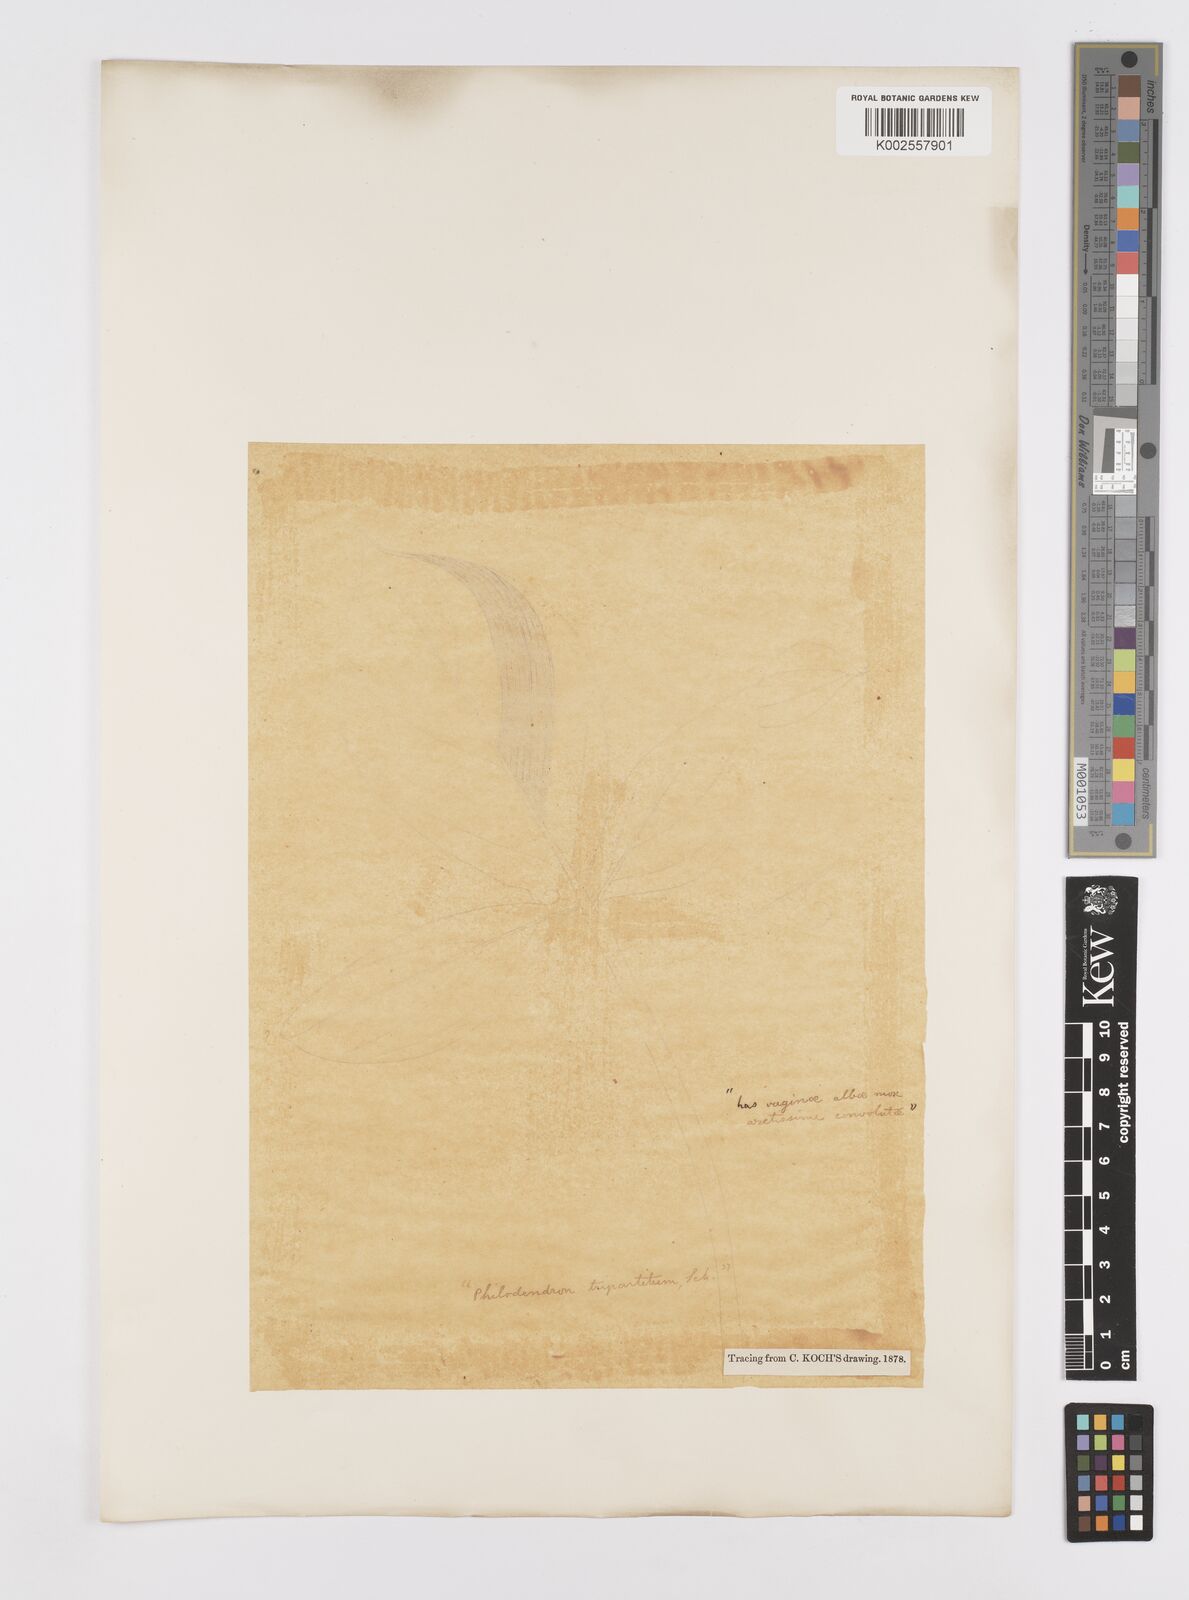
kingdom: Plantae
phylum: Tracheophyta
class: Liliopsida
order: Alismatales
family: Araceae
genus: Philodendron
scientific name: Philodendron tripartitum
